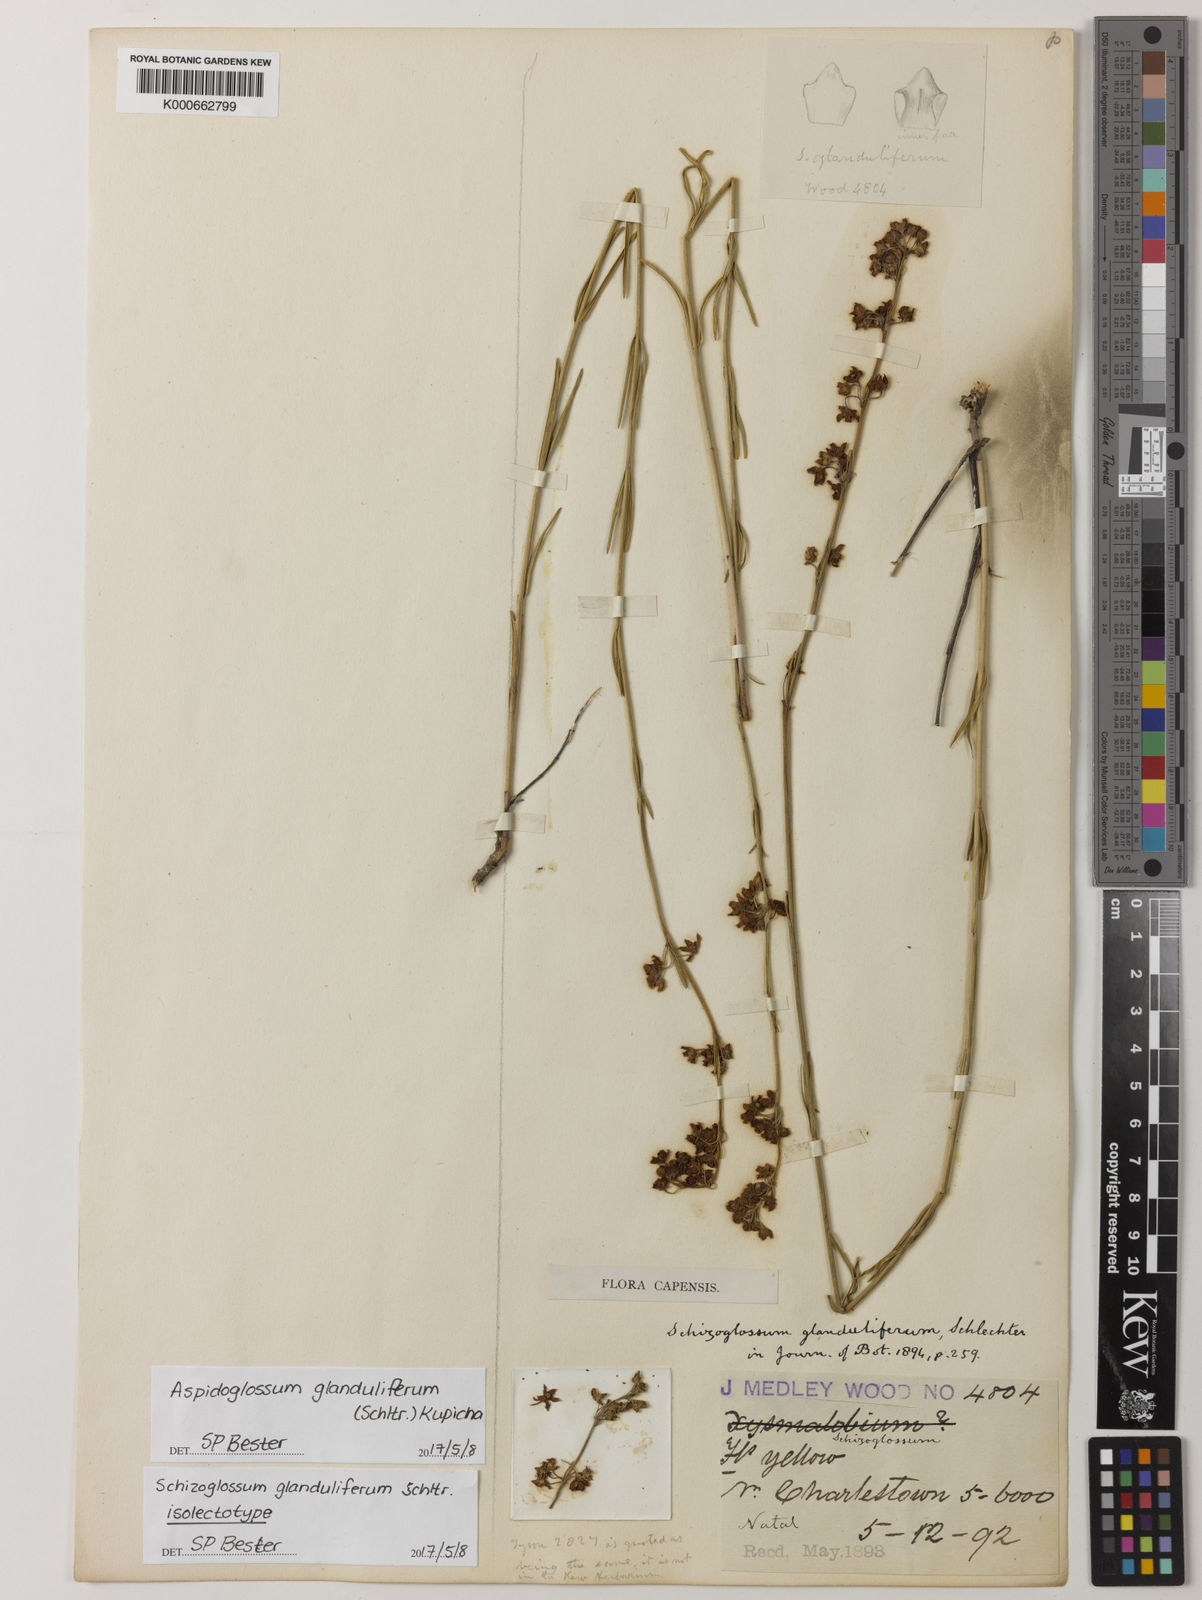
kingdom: Plantae
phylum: Tracheophyta
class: Magnoliopsida
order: Gentianales
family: Apocynaceae
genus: Aspidoglossum
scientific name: Aspidoglossum glanduliferum
